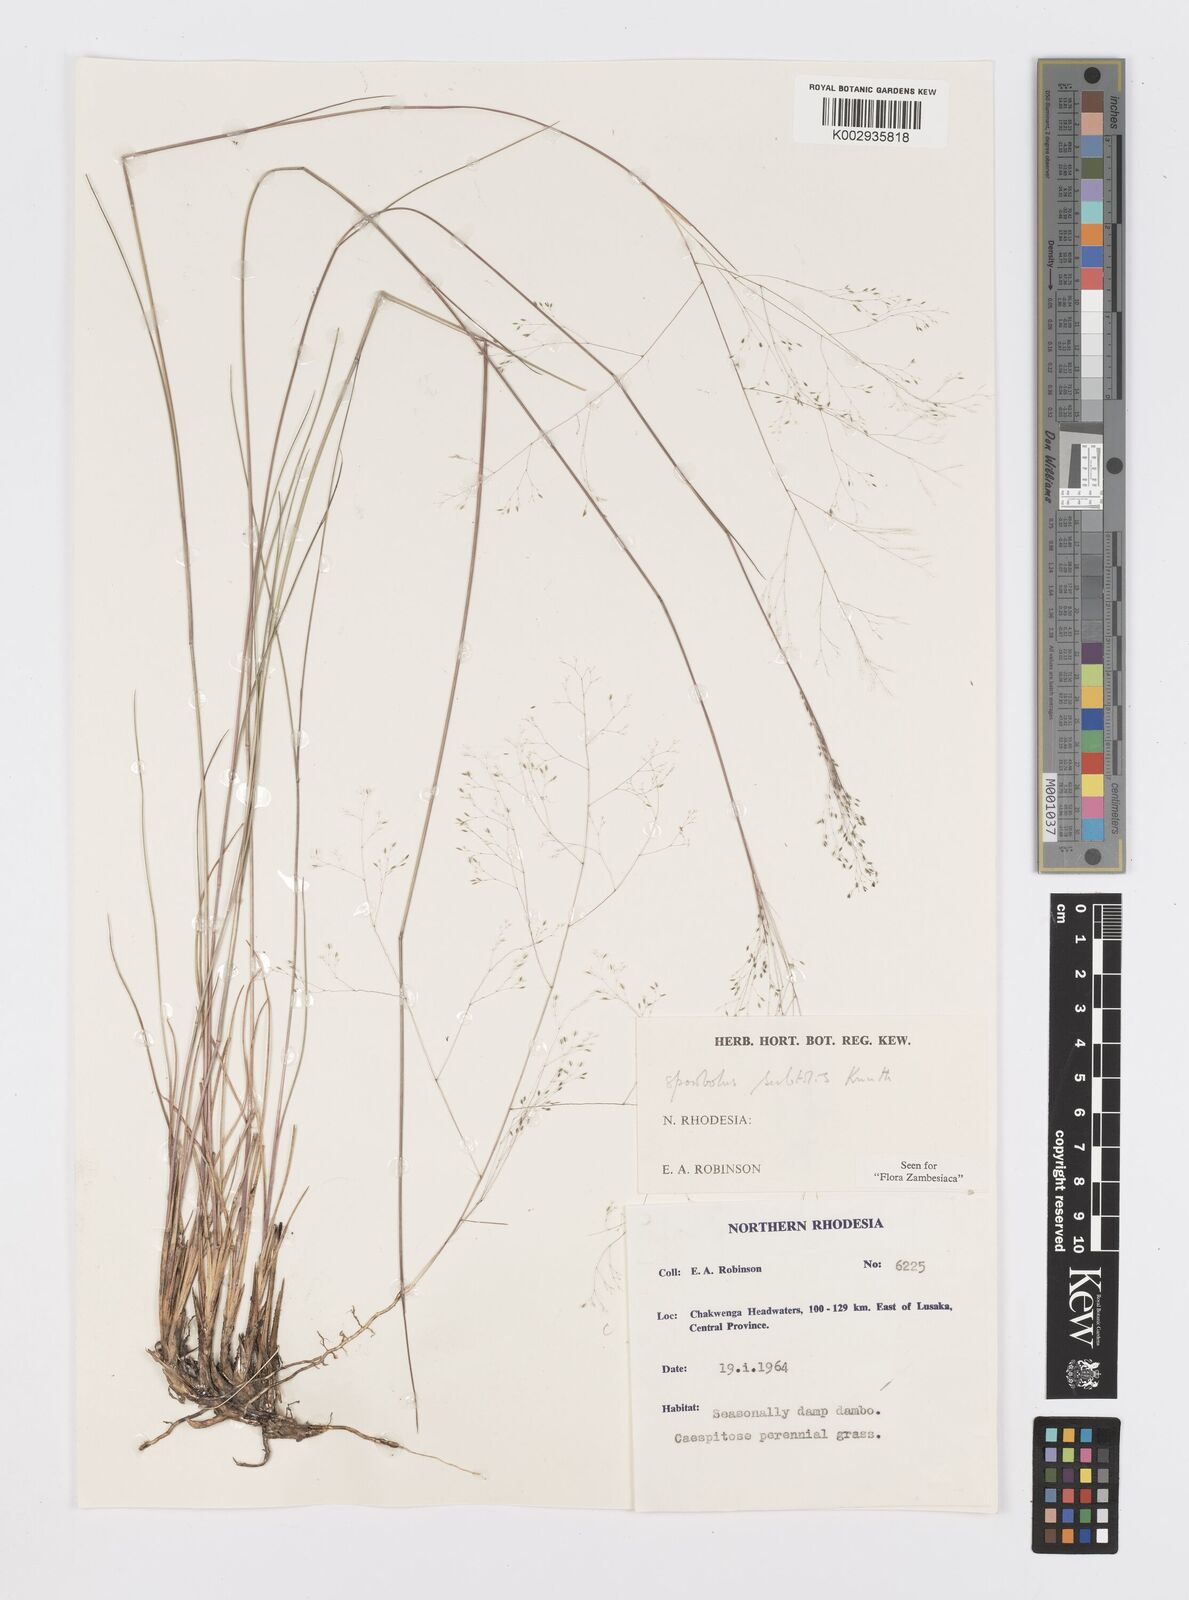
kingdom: Plantae
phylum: Tracheophyta
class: Liliopsida
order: Poales
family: Poaceae
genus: Sporobolus
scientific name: Sporobolus subtilis
